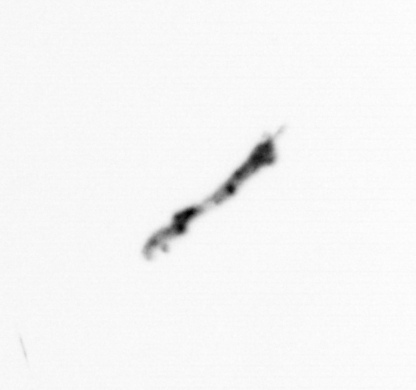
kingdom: Bacteria
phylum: Cyanobacteria
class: Cyanobacteriia
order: Cyanobacteriales
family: Microcoleaceae
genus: Trichodesmium
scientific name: Trichodesmium
